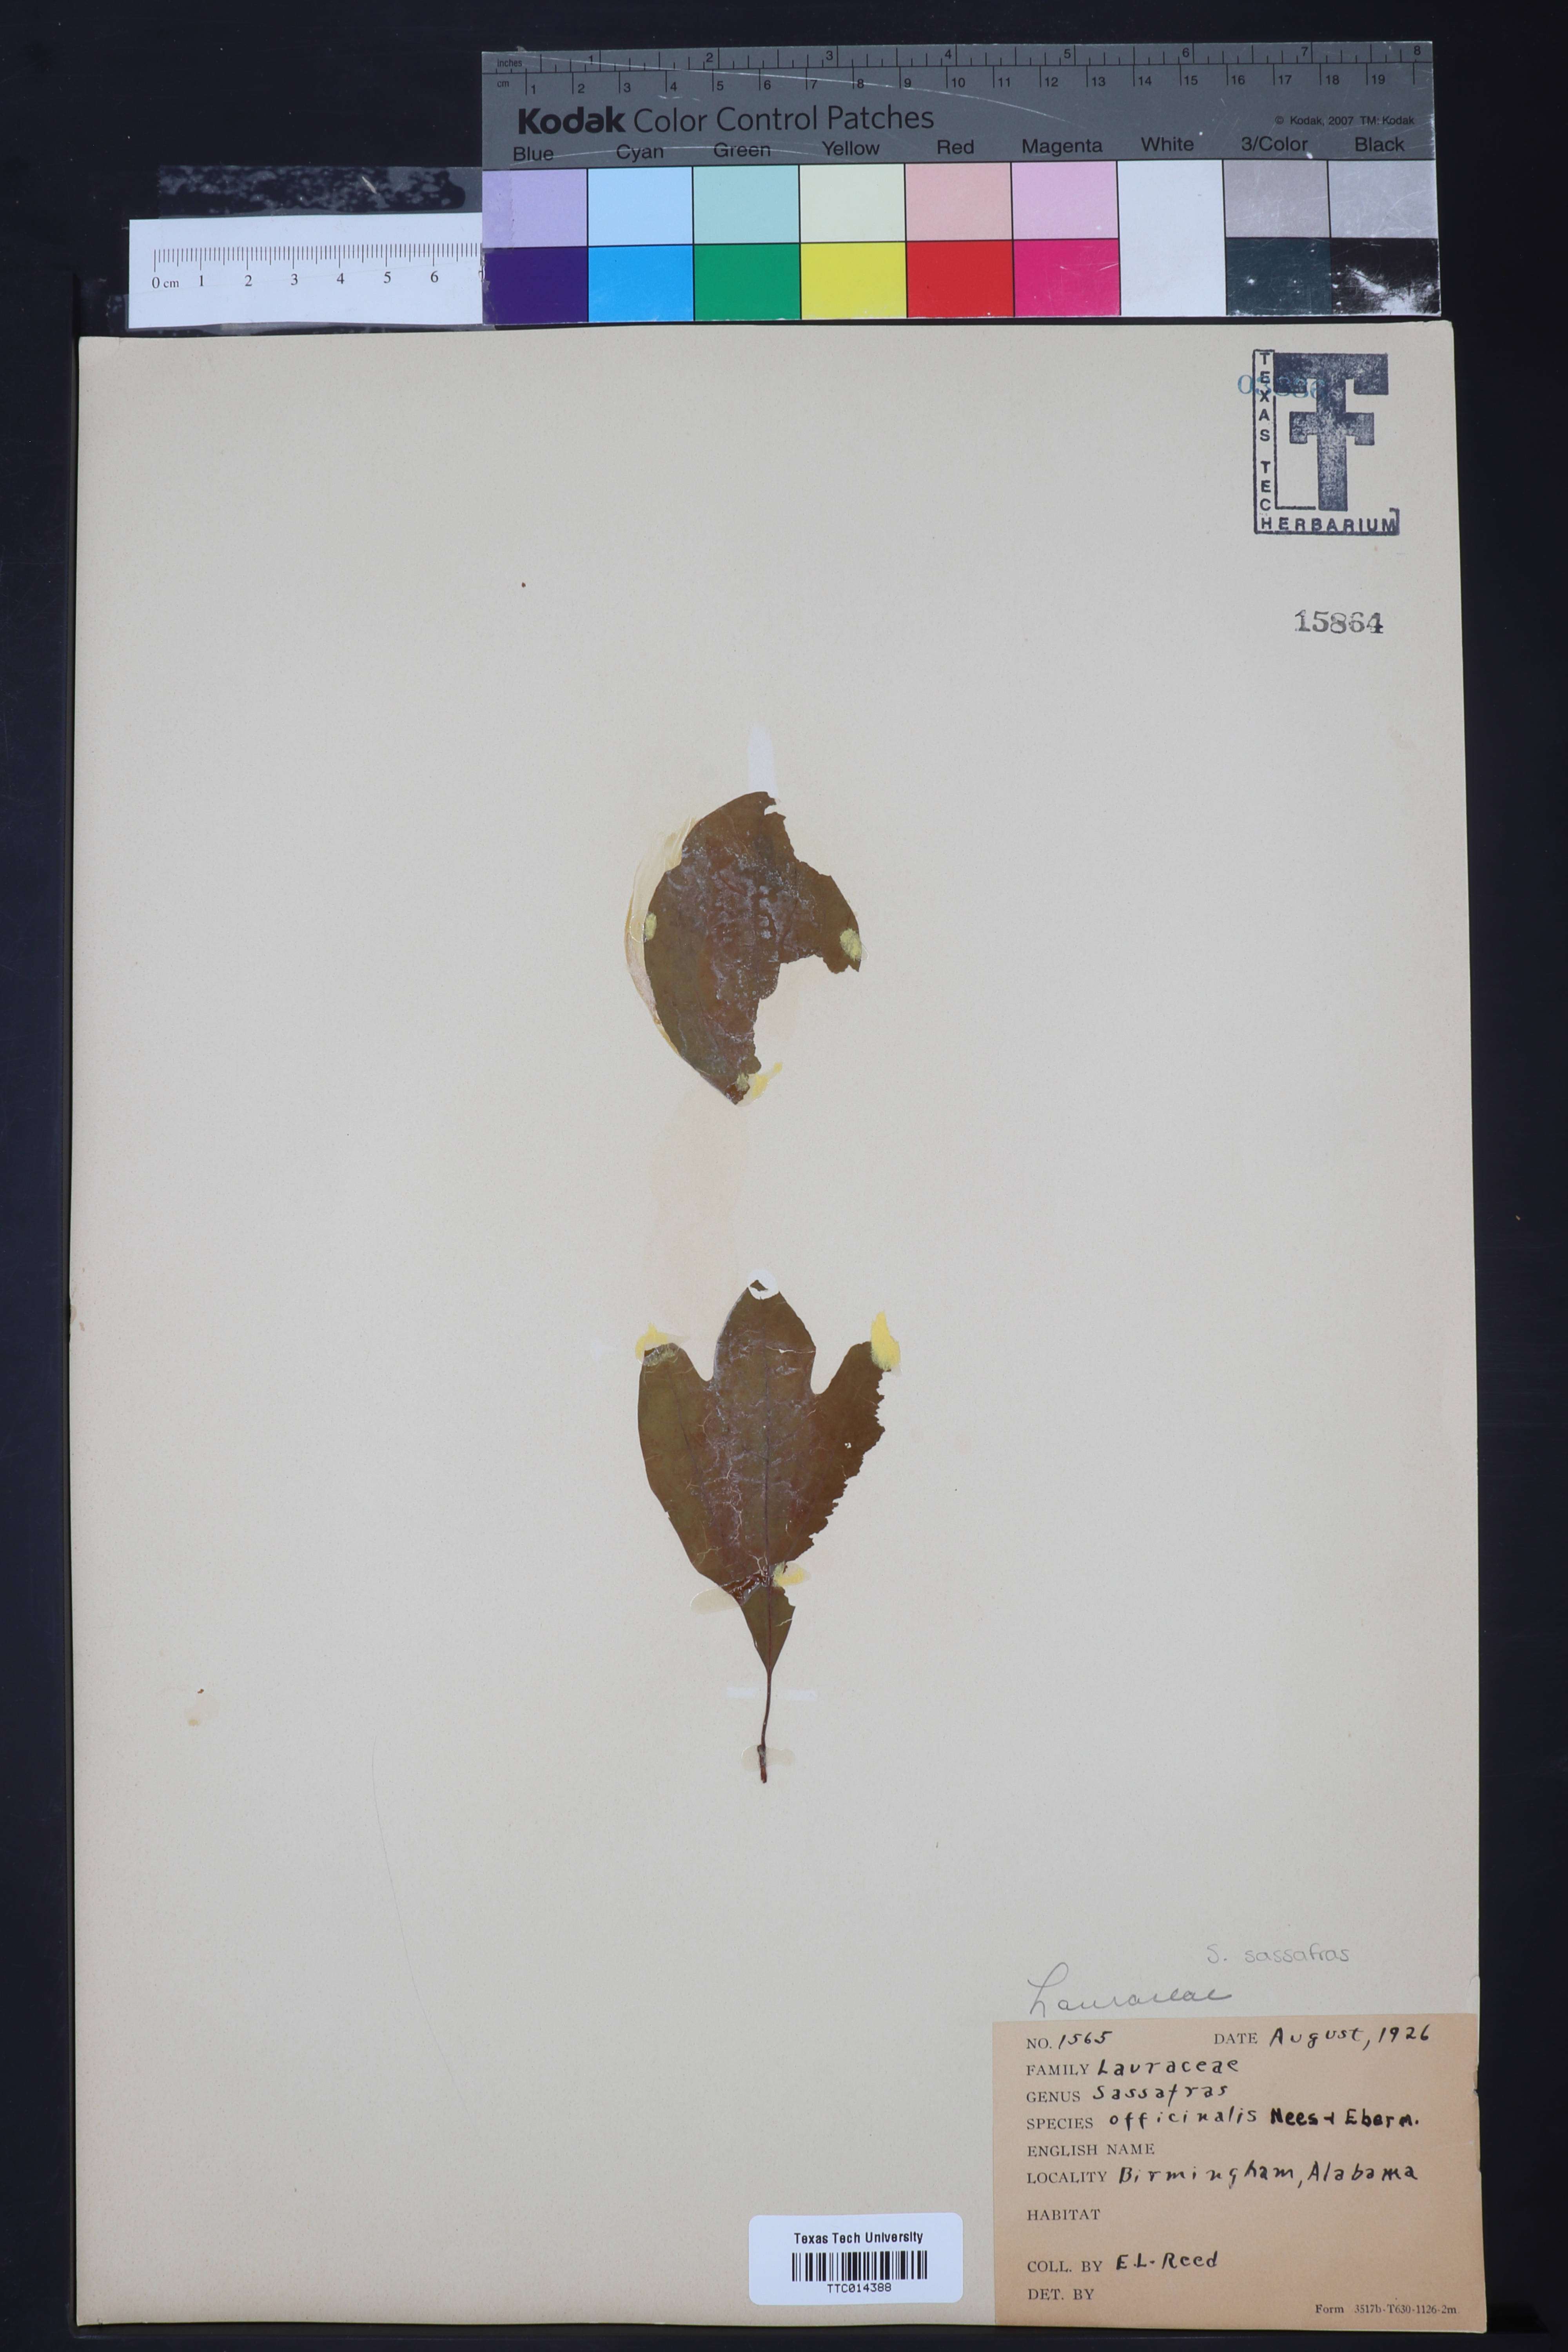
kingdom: Plantae
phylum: Tracheophyta
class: Magnoliopsida
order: Laurales
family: Lauraceae
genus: Sassafras
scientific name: Sassafras albidum
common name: Sassafras
